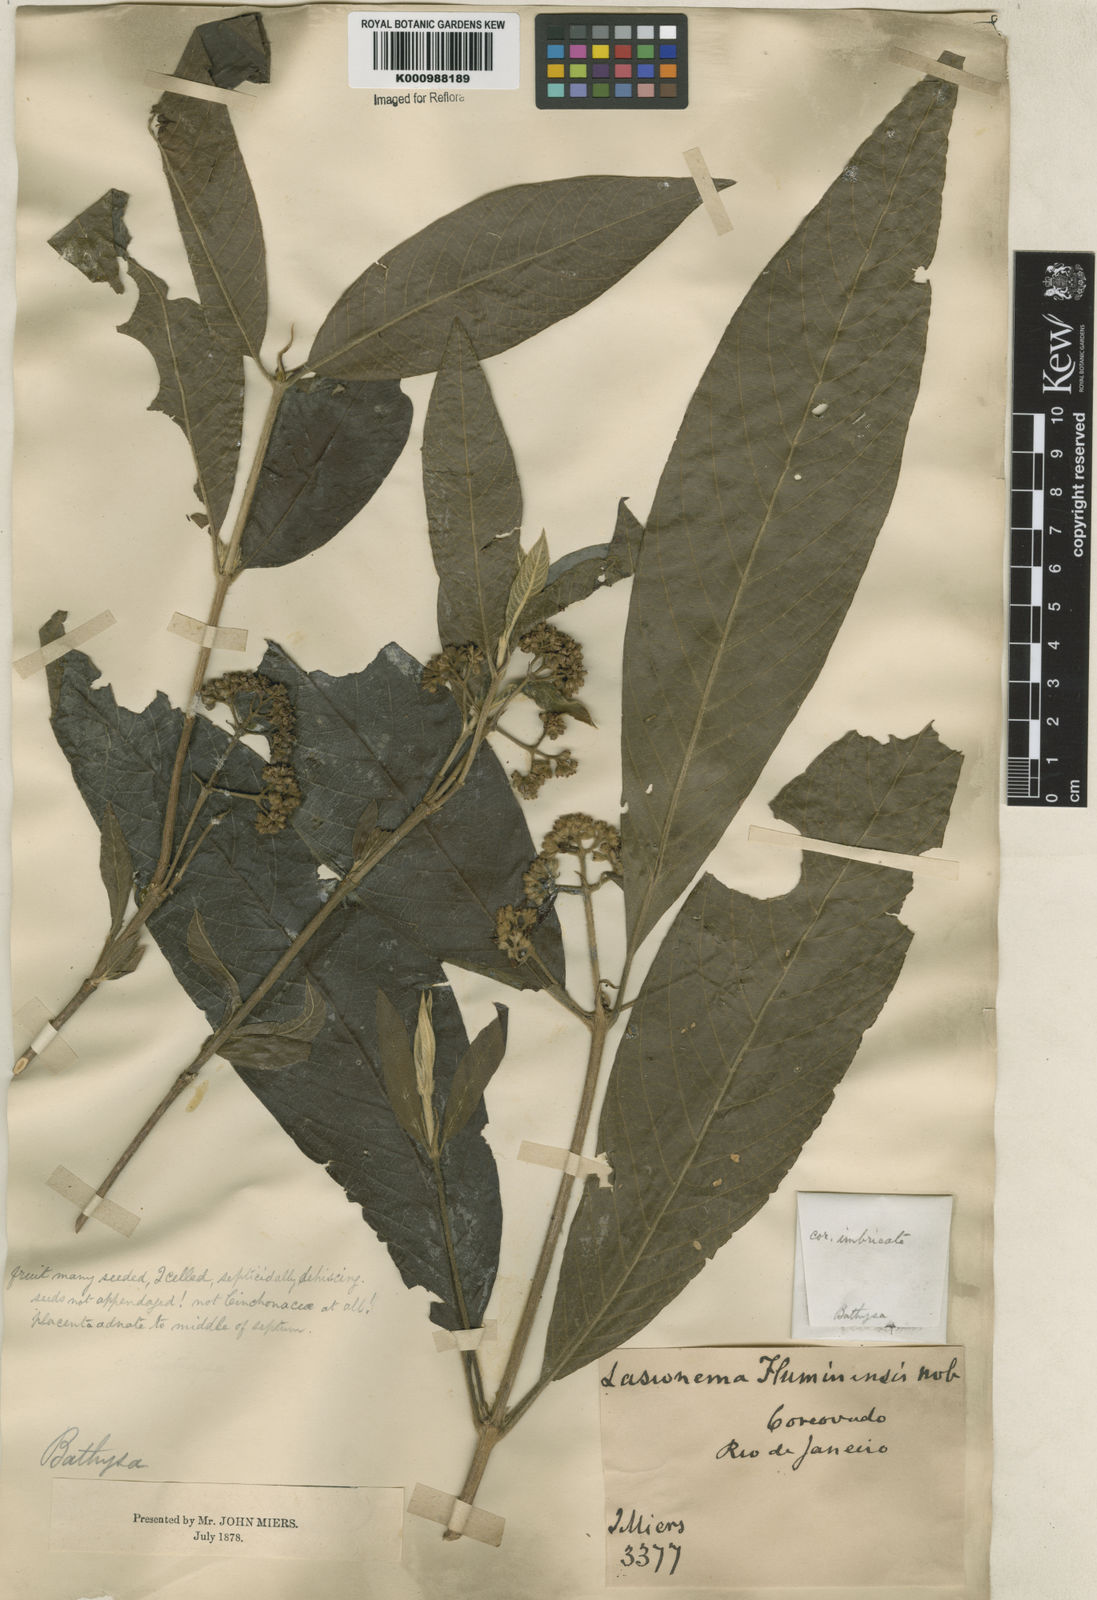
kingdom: Plantae
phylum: Tracheophyta
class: Magnoliopsida
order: Gentianales
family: Rubiaceae
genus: Bathysa
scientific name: Bathysa
